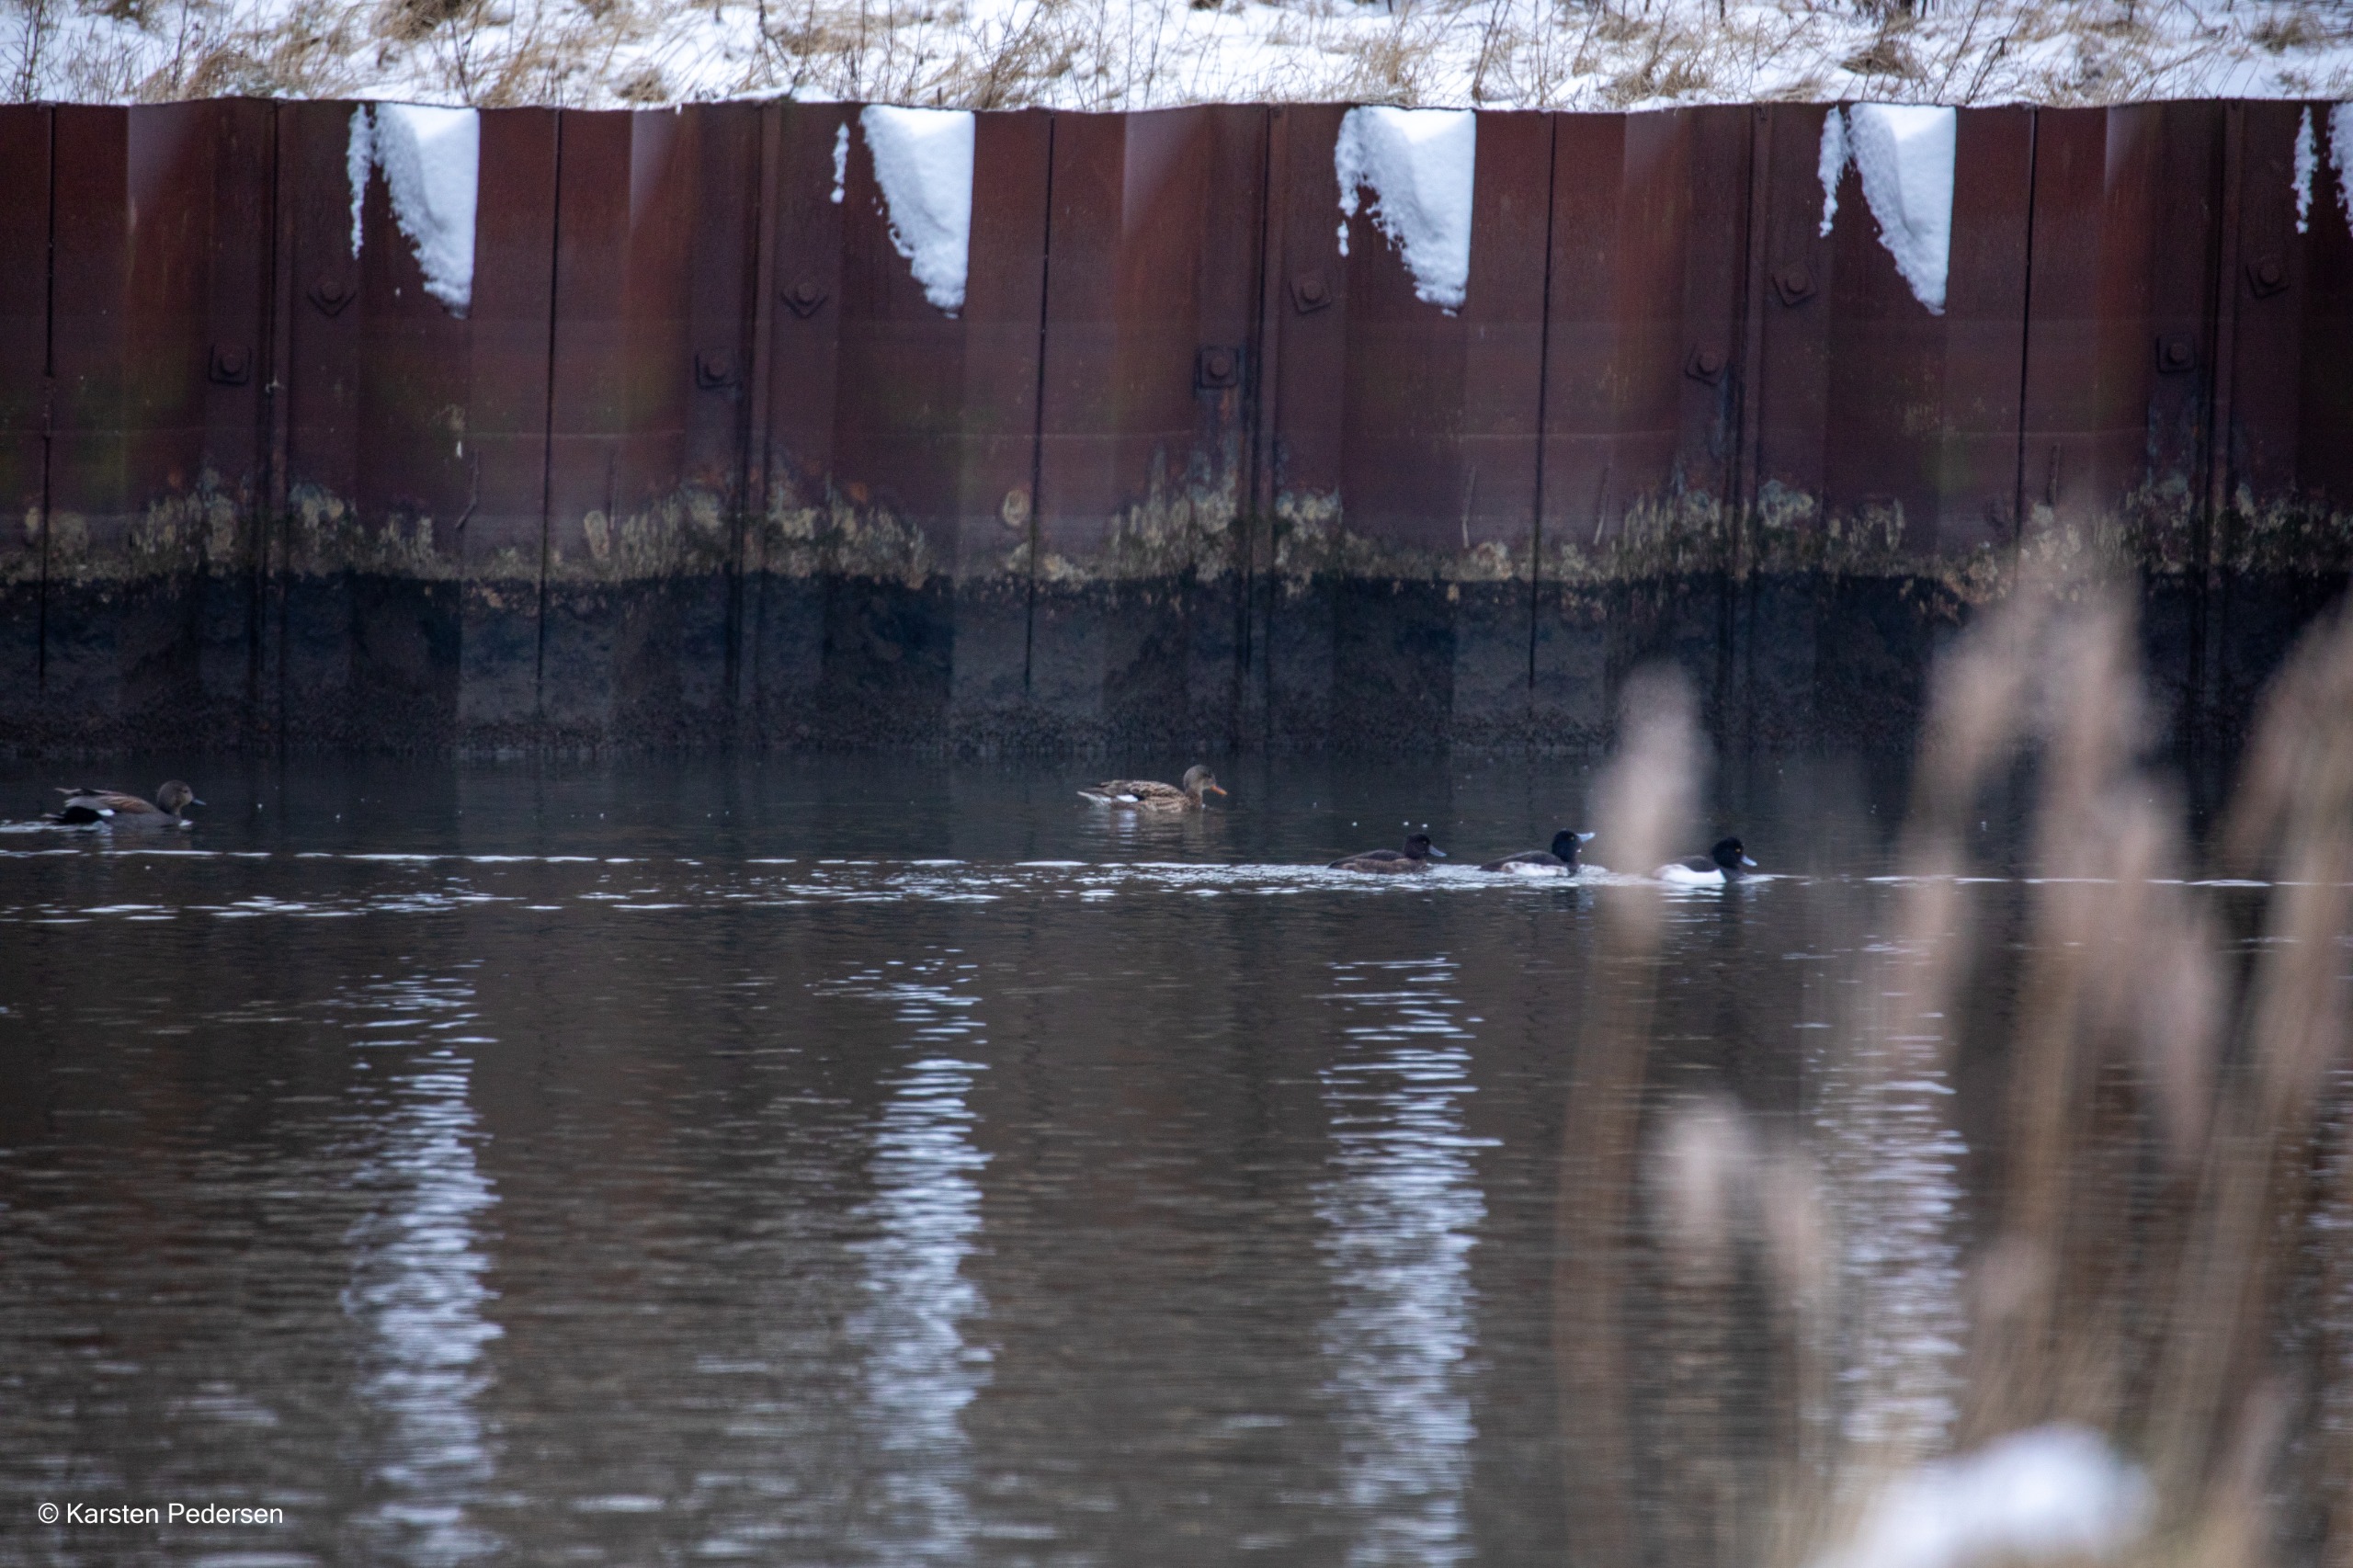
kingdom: Animalia
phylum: Chordata
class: Aves
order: Anseriformes
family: Anatidae
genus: Mareca
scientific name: Mareca strepera
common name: Knarand
